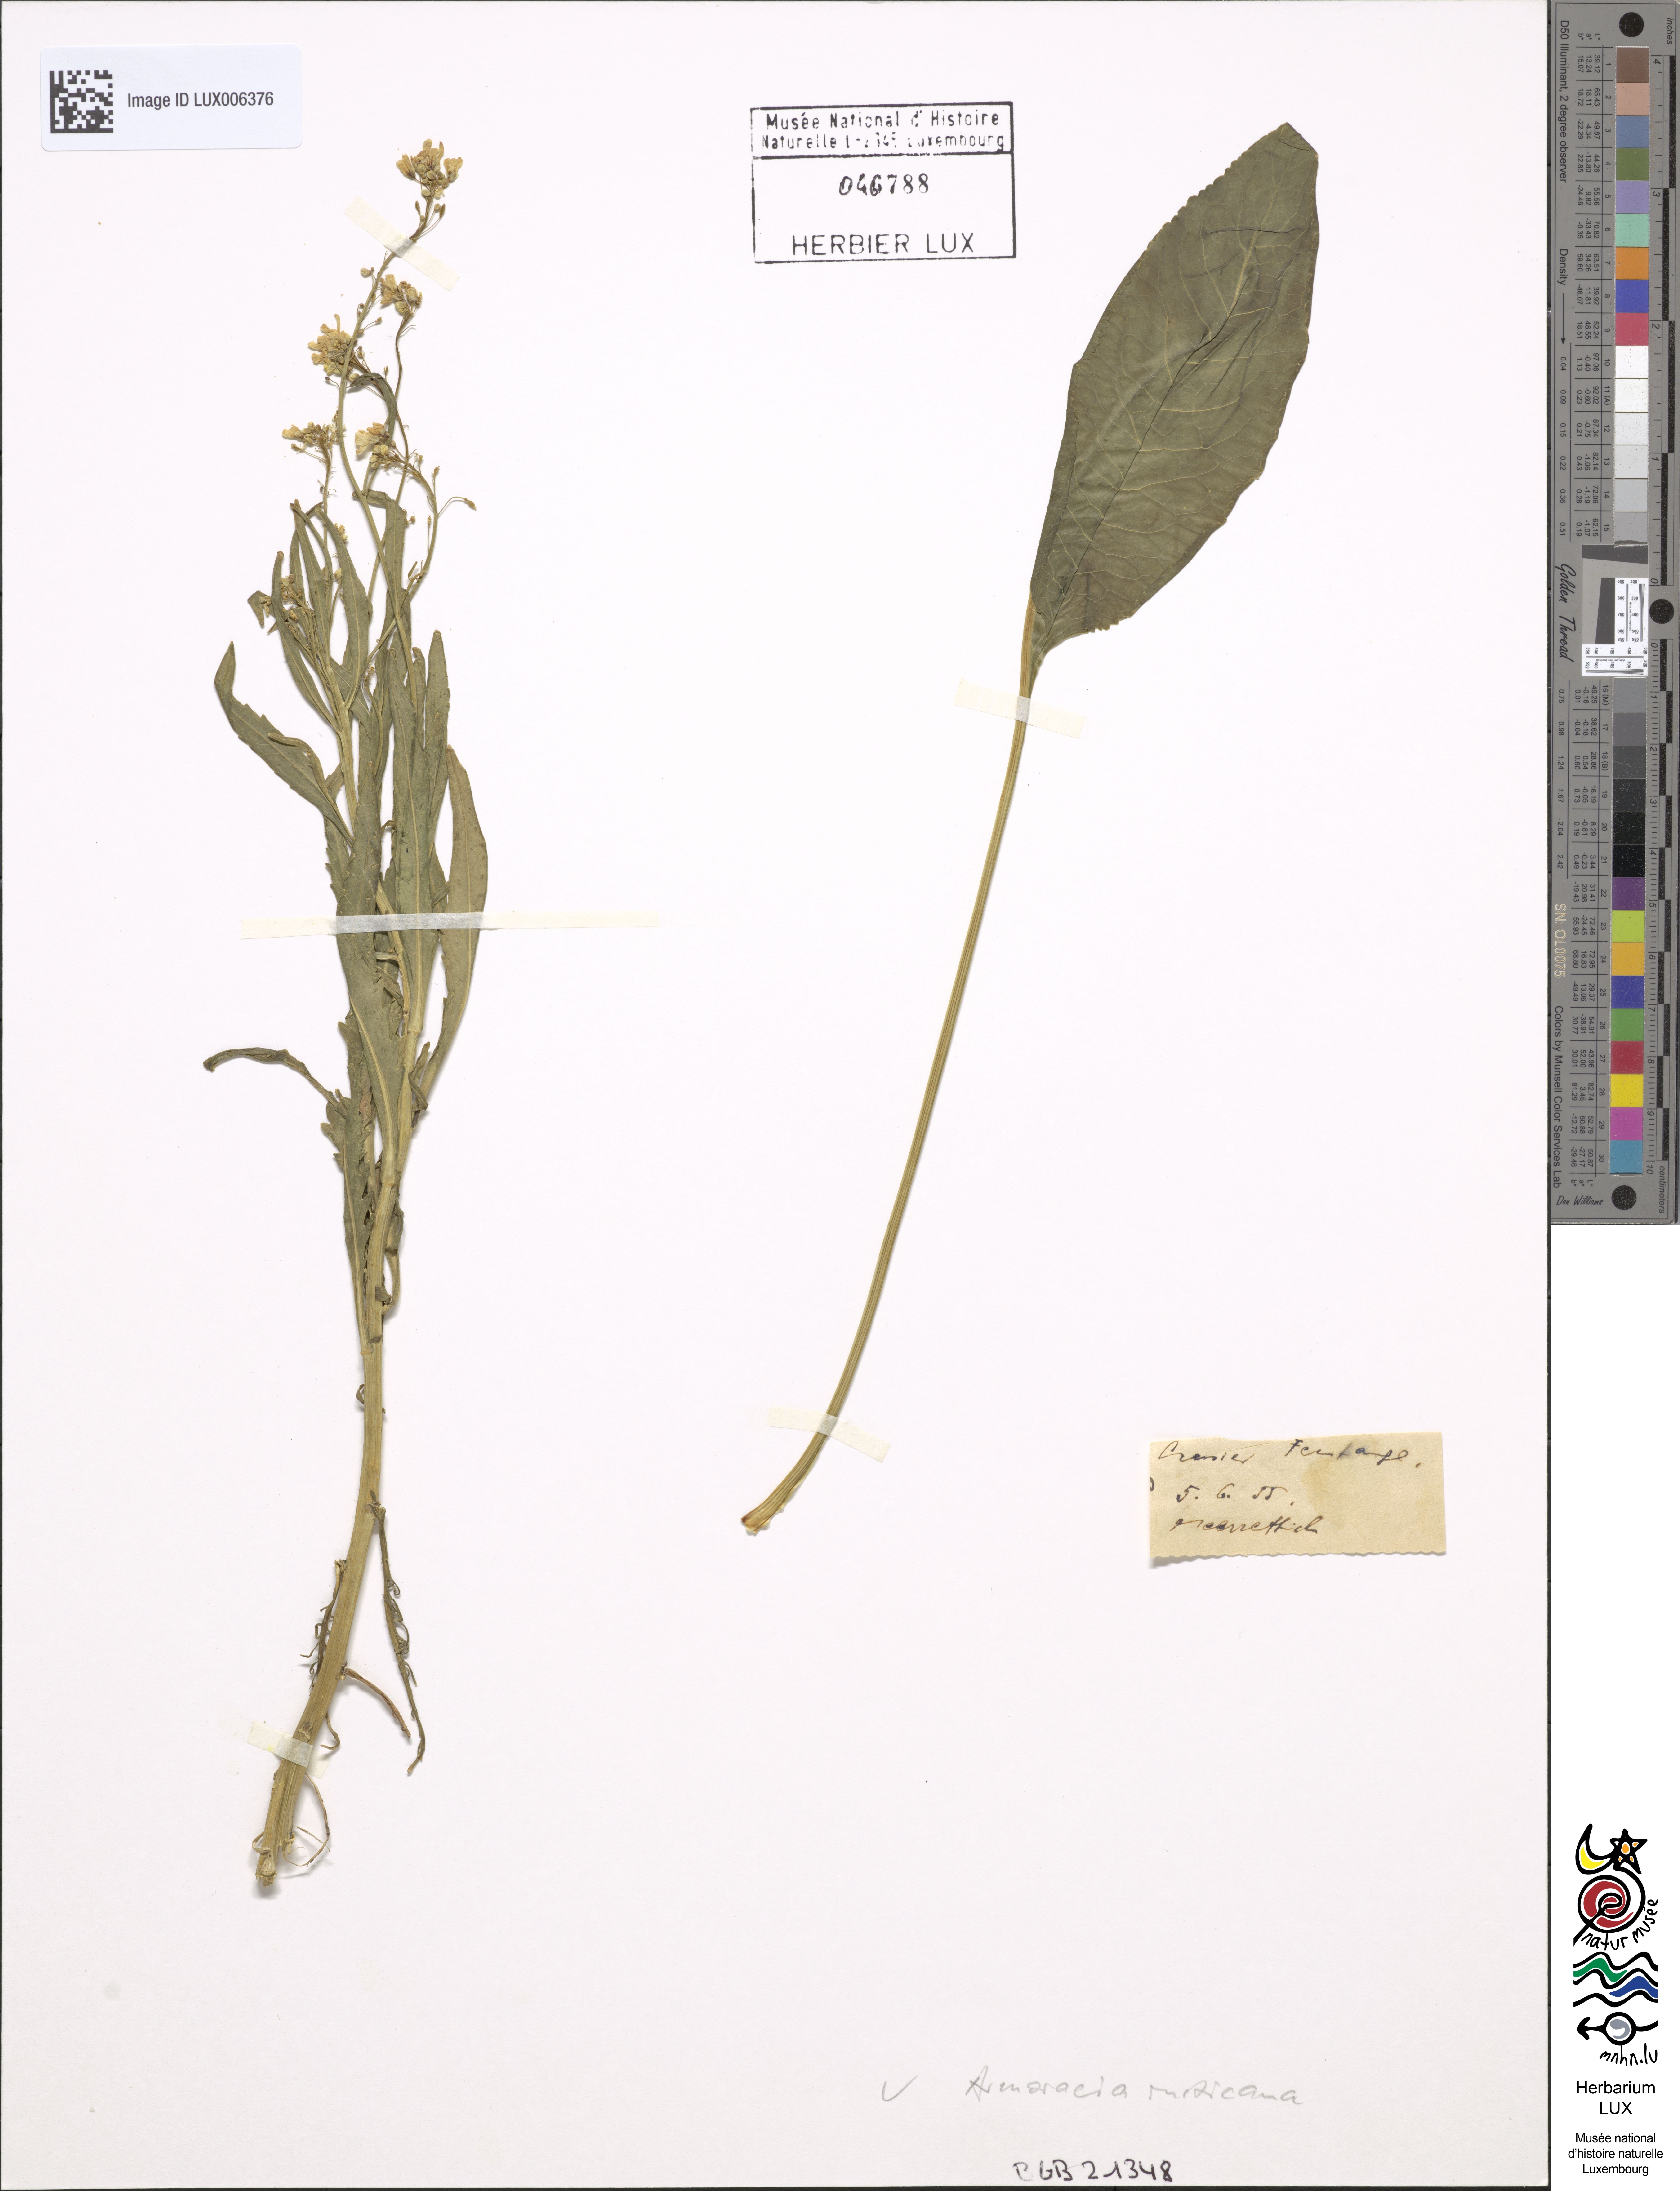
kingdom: Plantae
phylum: Tracheophyta
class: Magnoliopsida
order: Brassicales
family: Brassicaceae
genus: Armoracia
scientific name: Armoracia rusticana
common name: Horseradish
